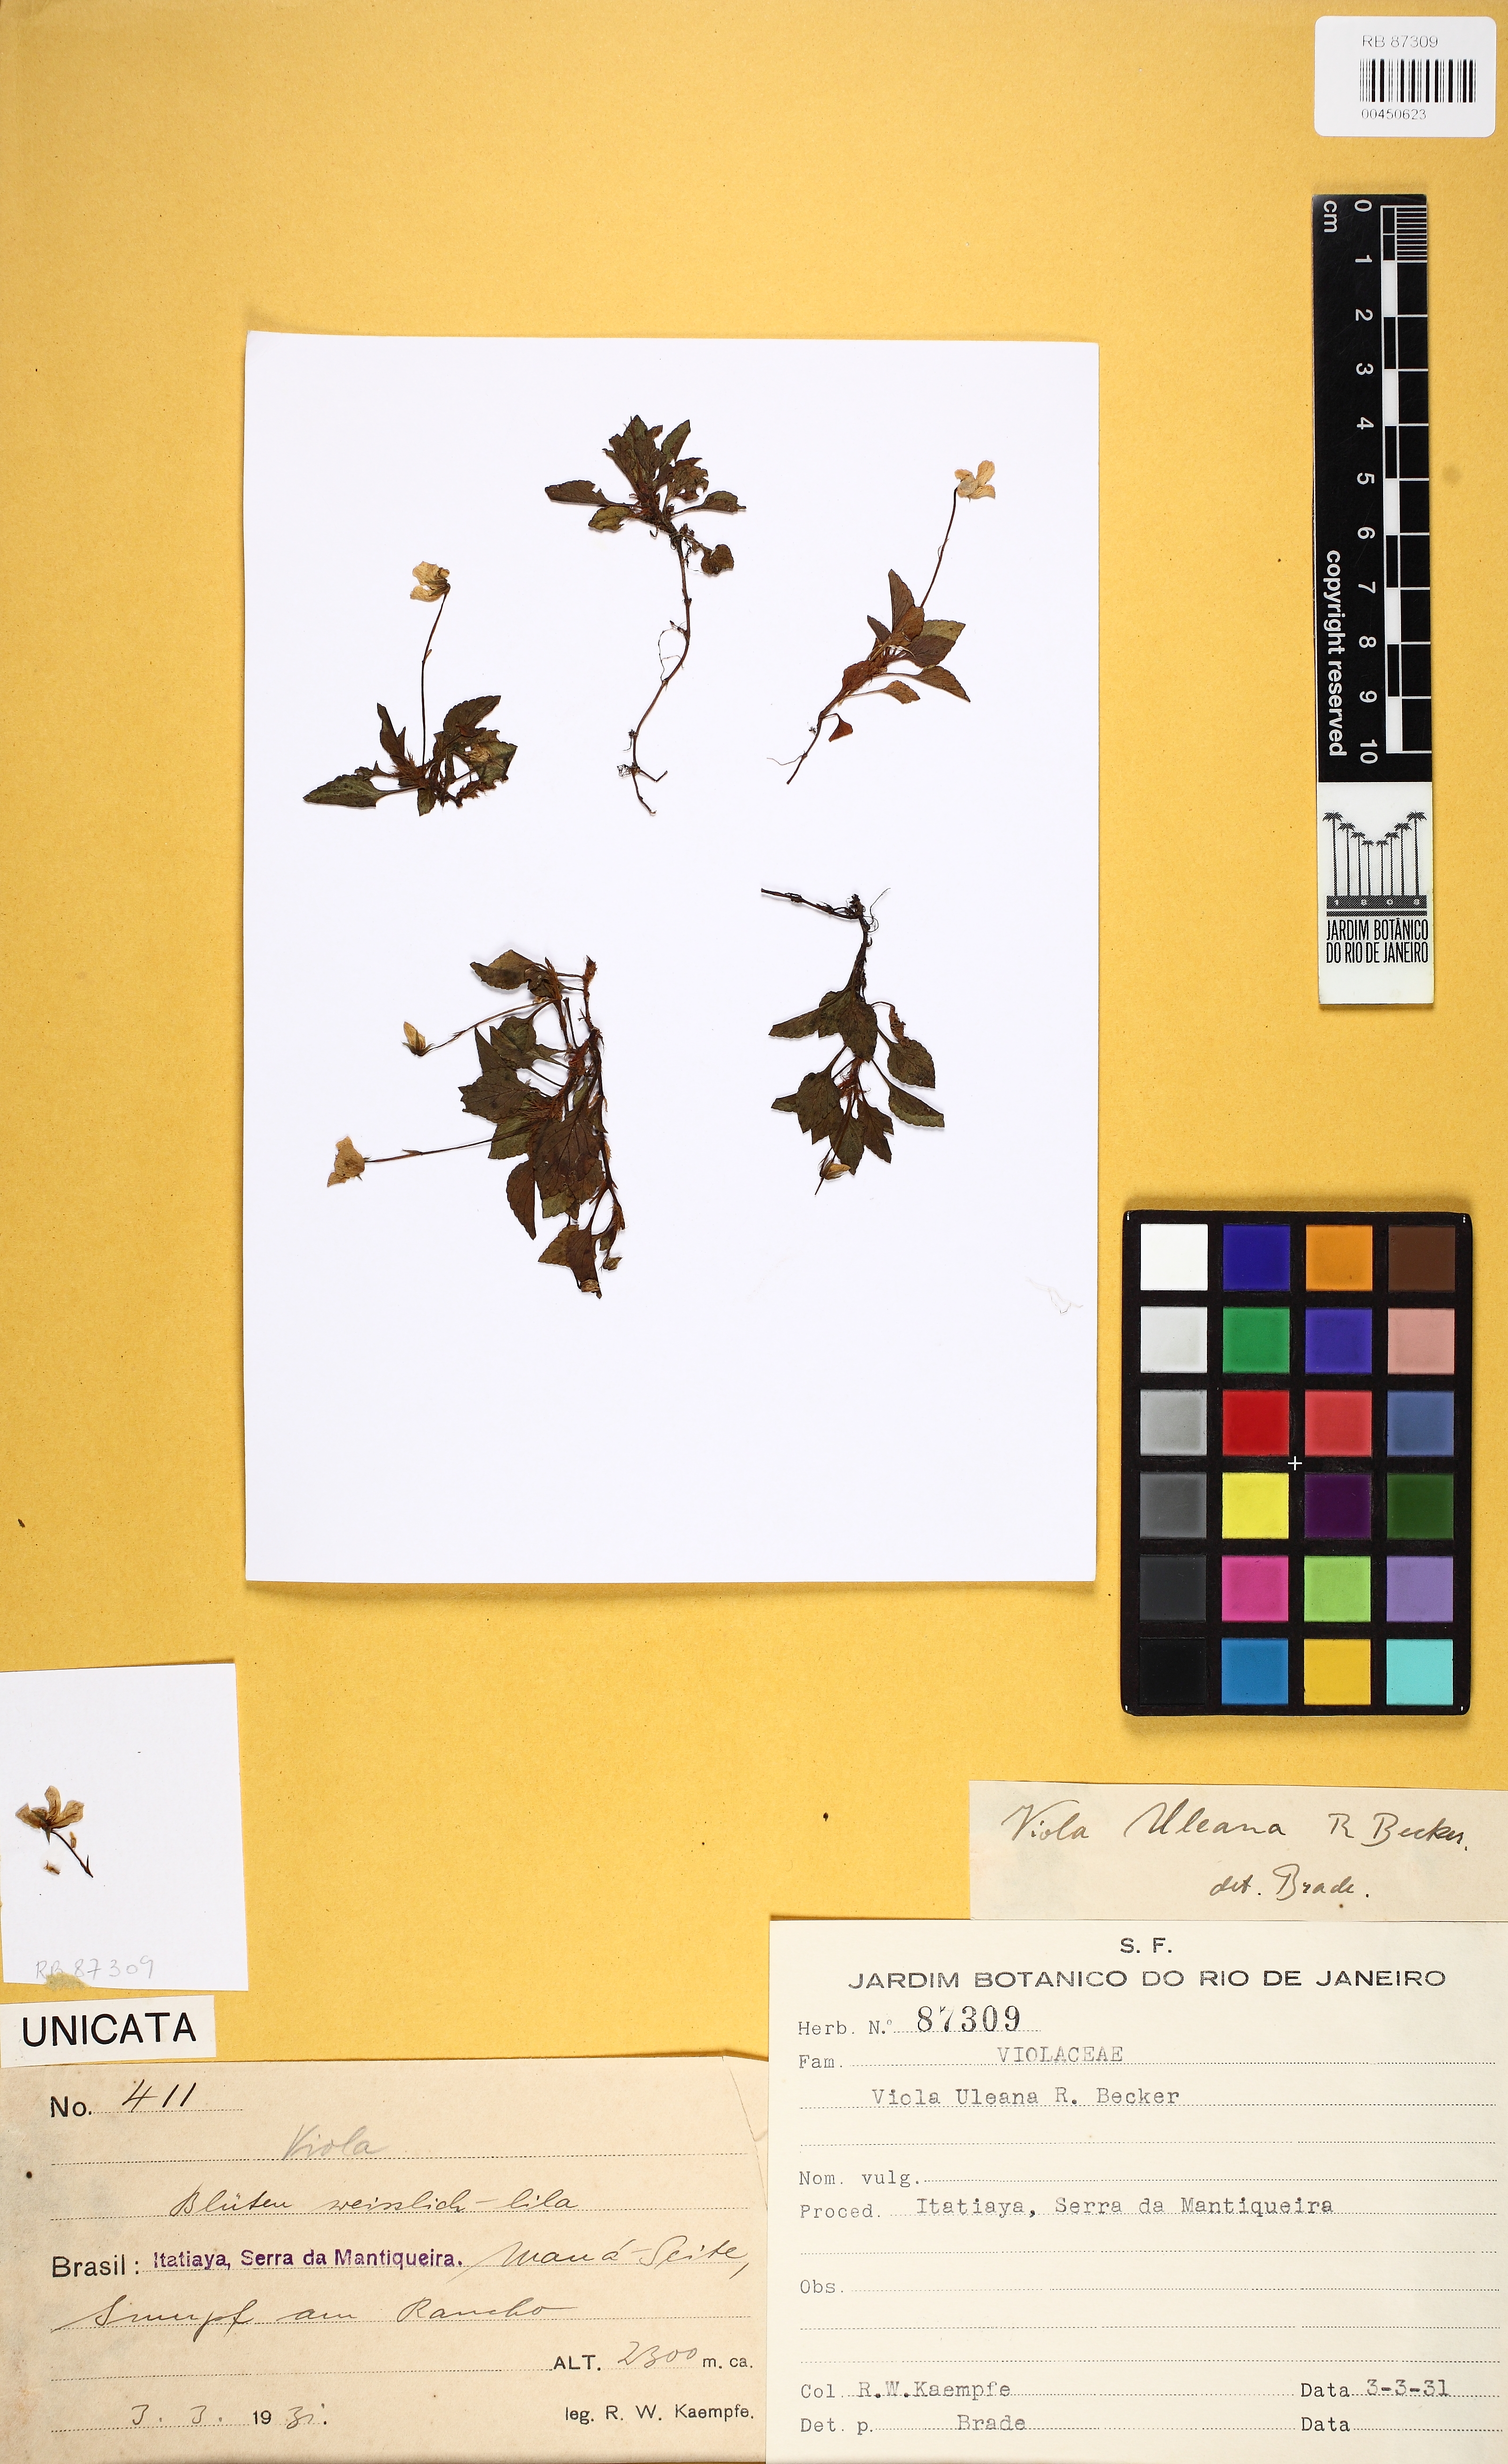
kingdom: Plantae
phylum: Tracheophyta
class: Magnoliopsida
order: Malpighiales
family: Violaceae
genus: Viola
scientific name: Viola uleana
